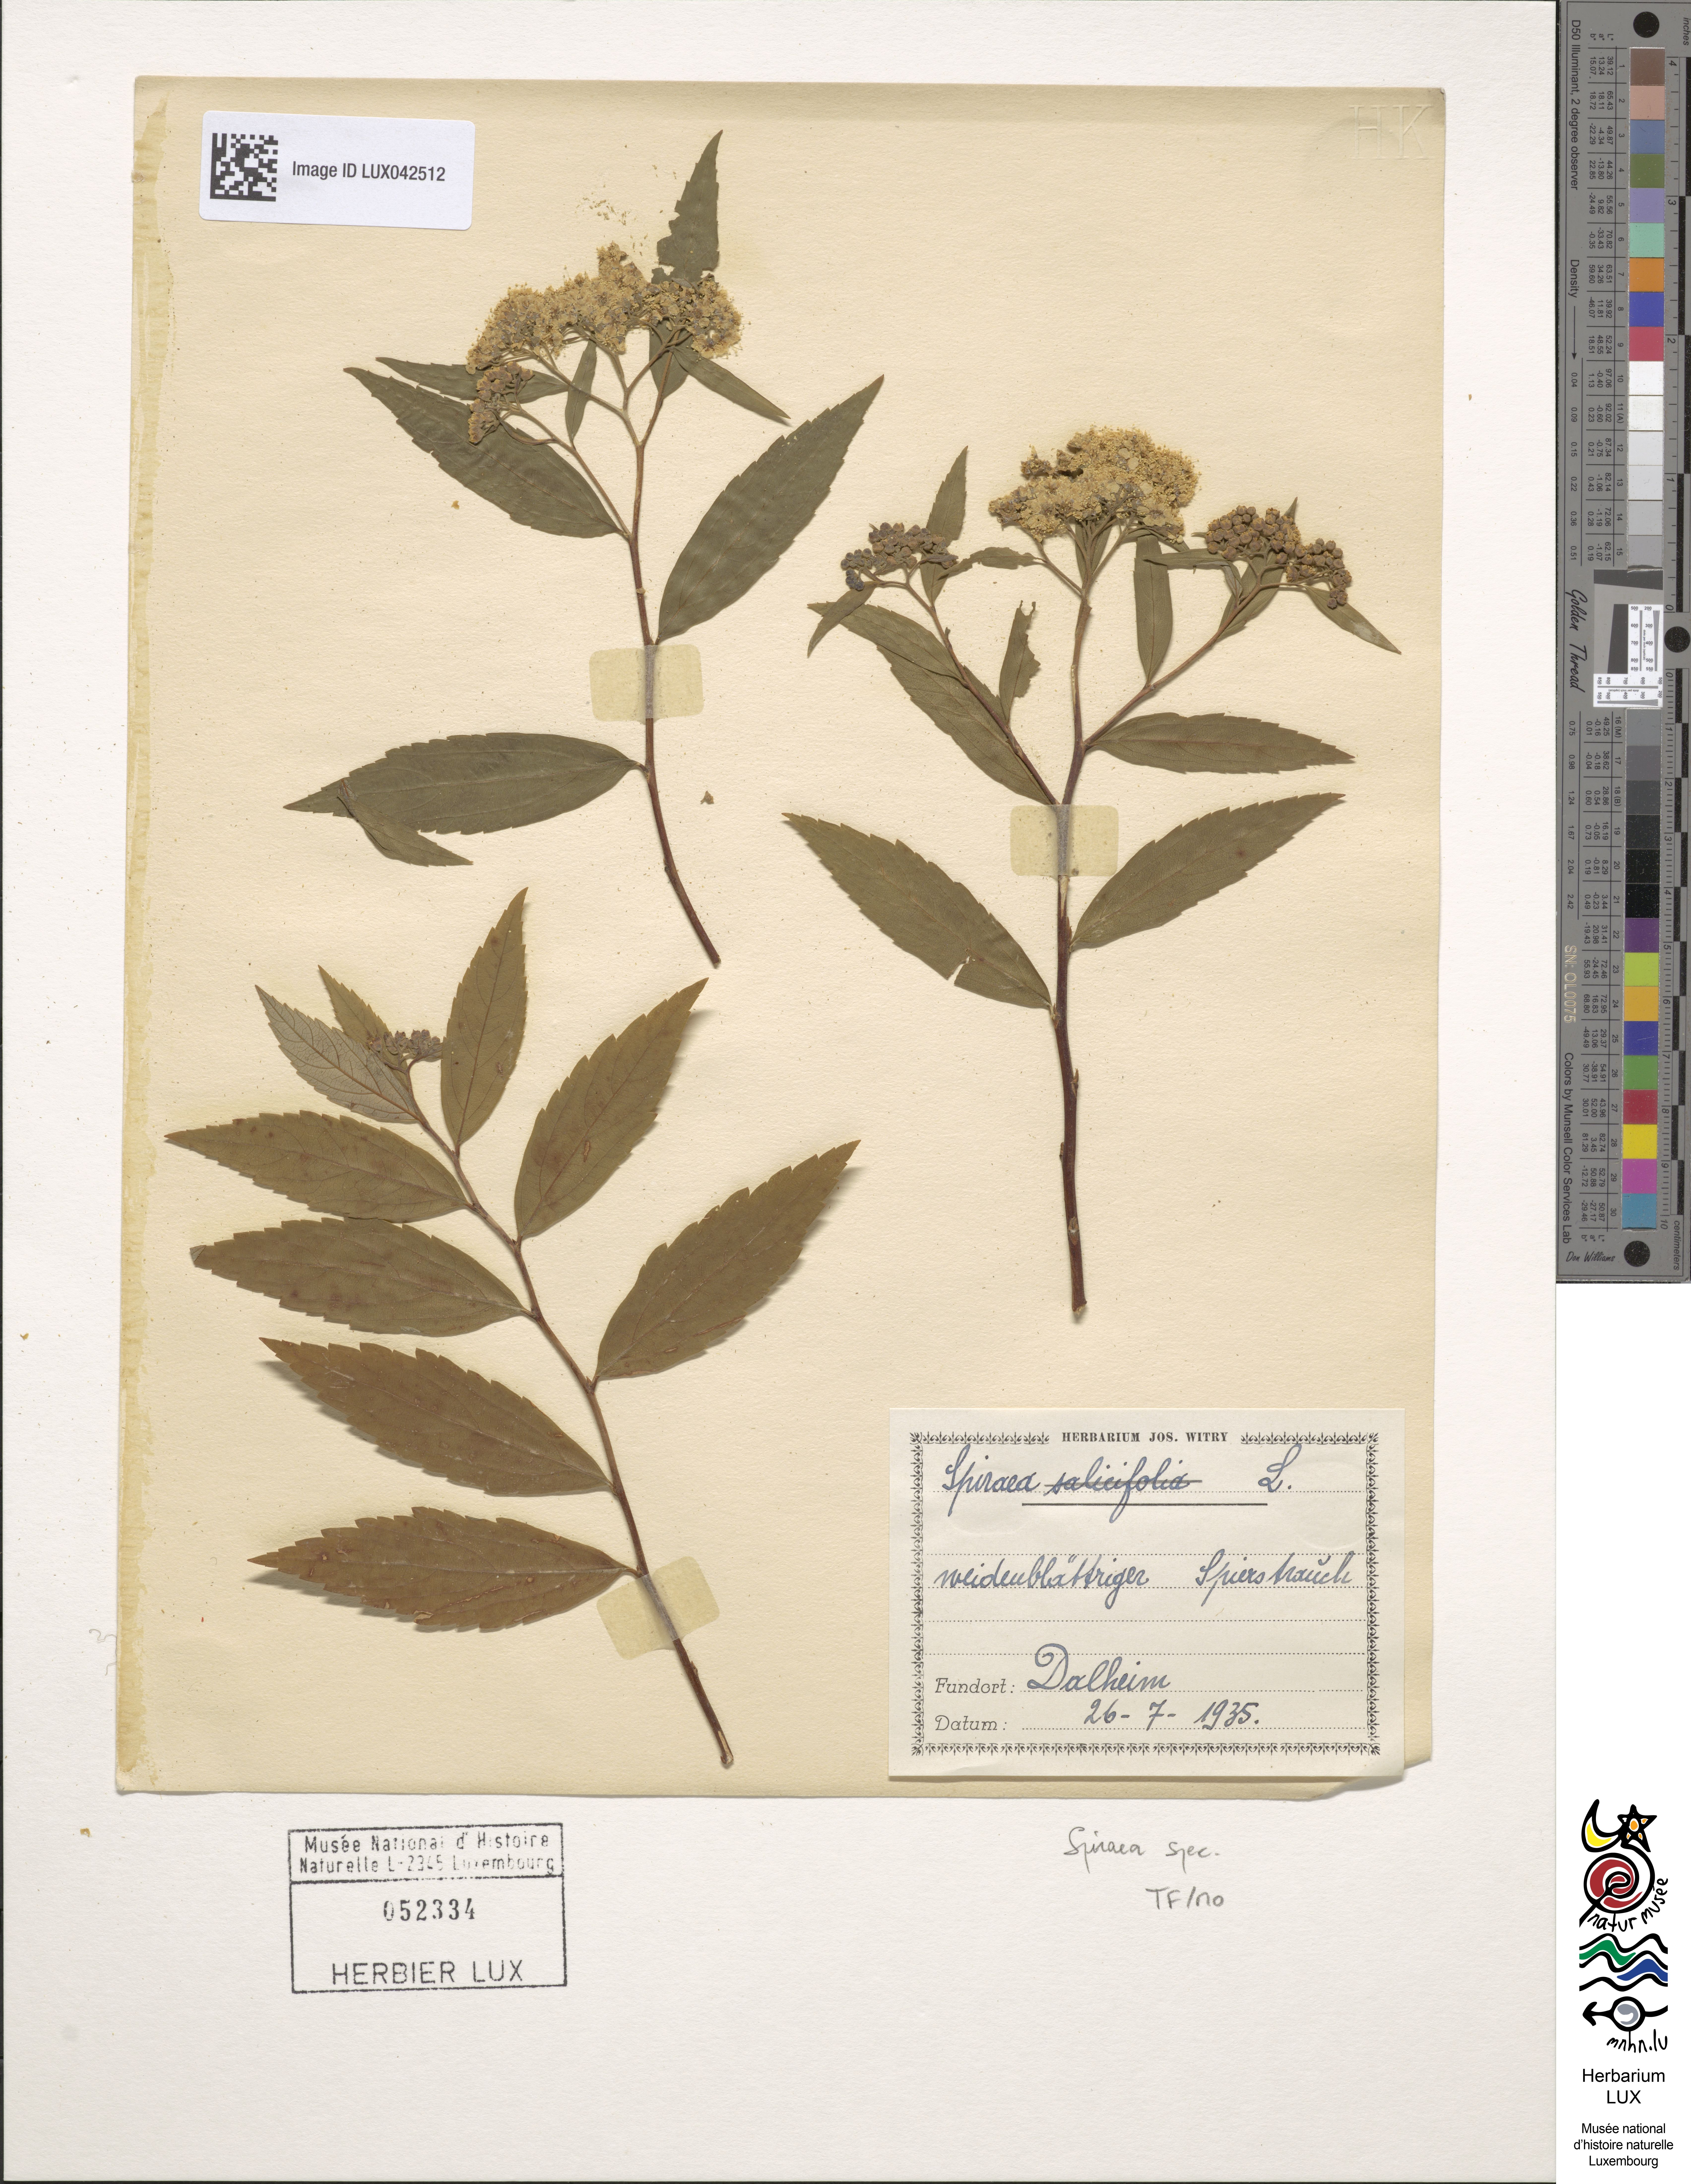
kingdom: Plantae
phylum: Tracheophyta
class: Magnoliopsida
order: Rosales
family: Rosaceae
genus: Spiraea
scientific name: Spiraea
